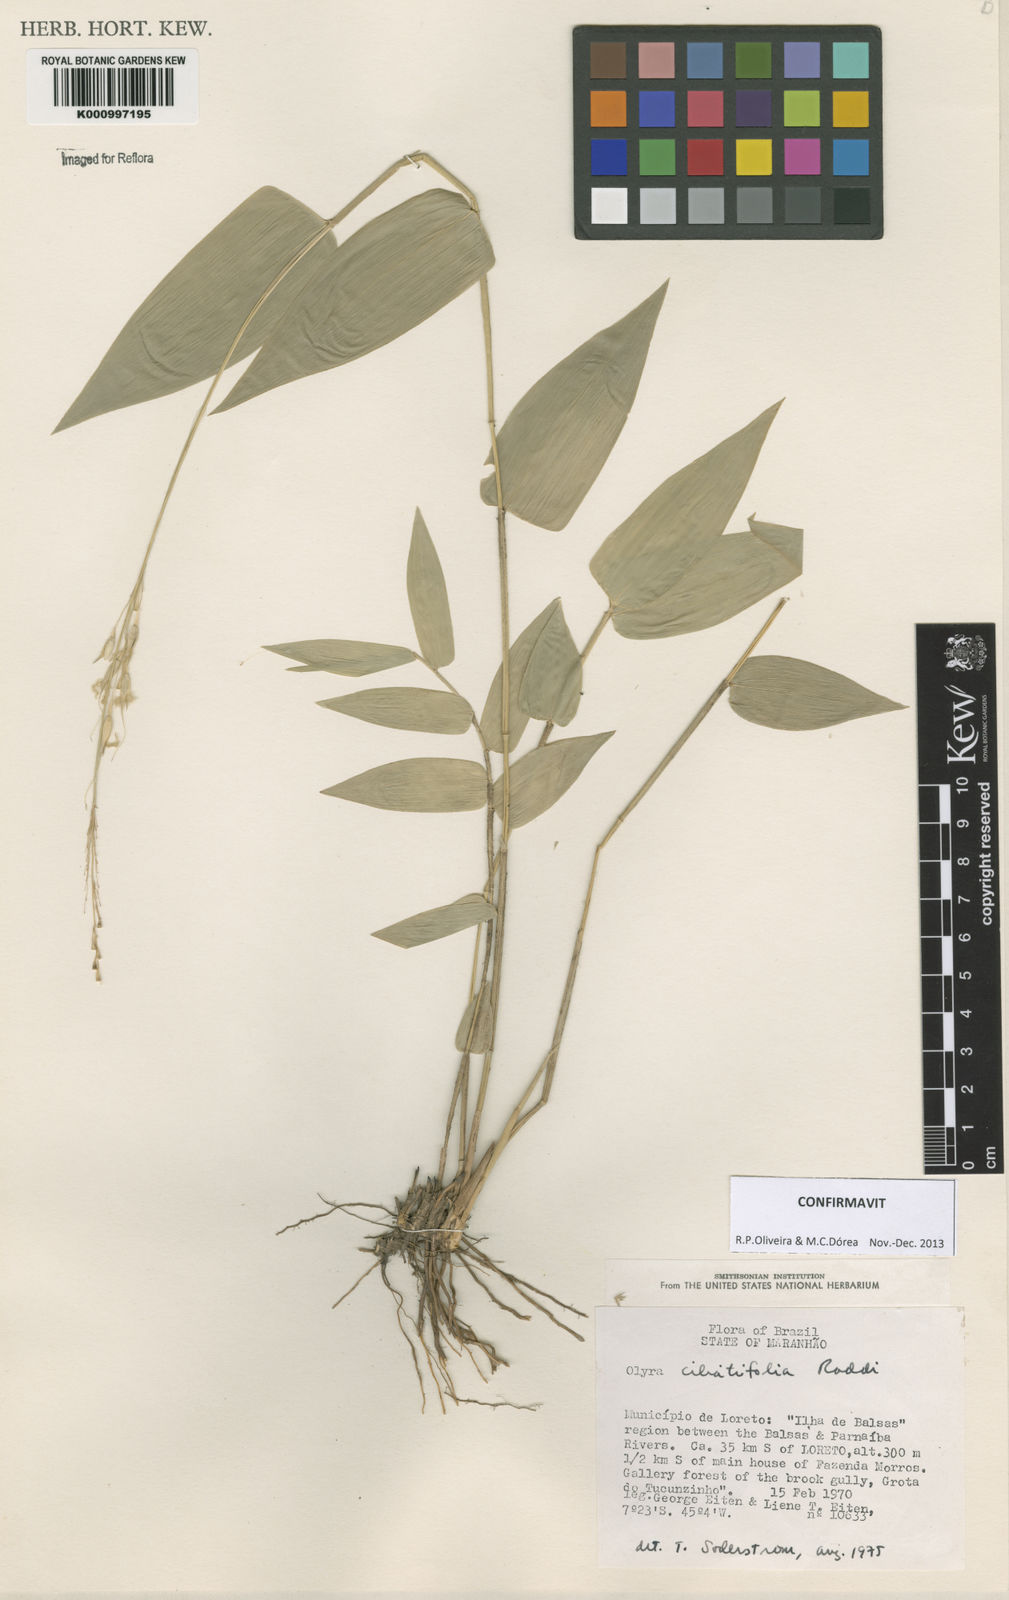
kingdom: Plantae
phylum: Tracheophyta
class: Liliopsida
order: Poales
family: Poaceae
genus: Olyra
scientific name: Olyra ciliatifolia
